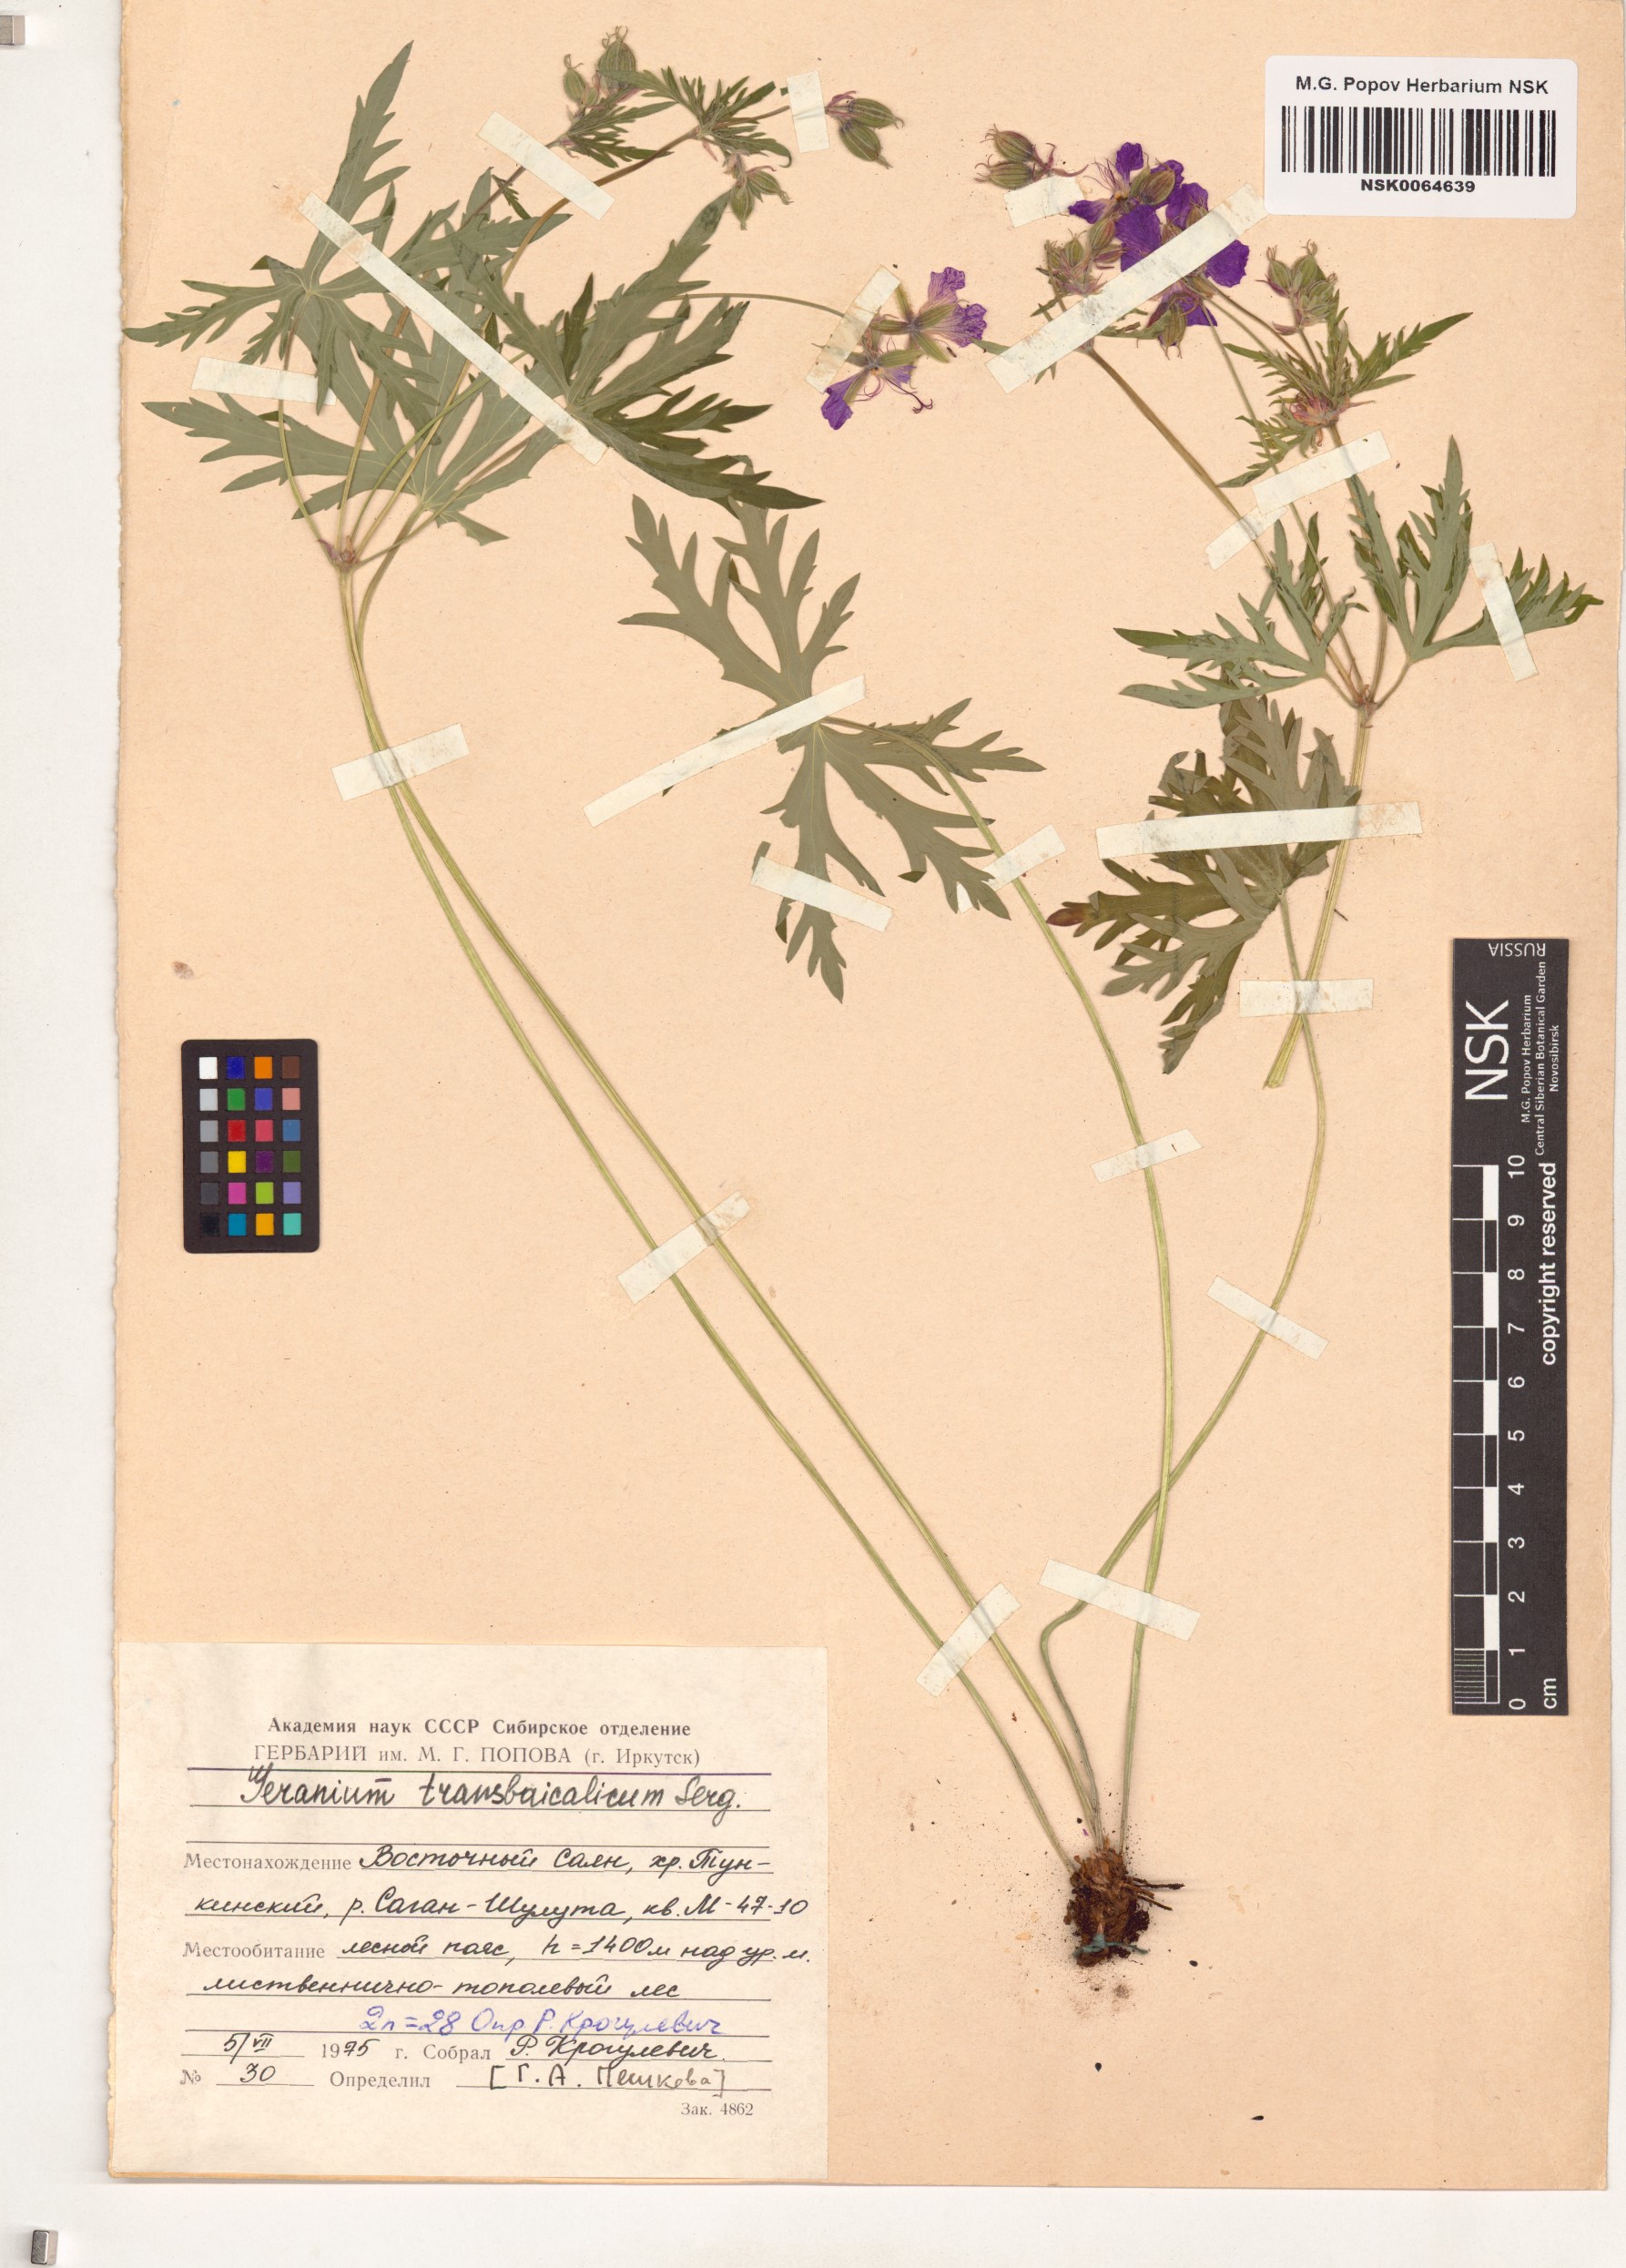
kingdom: Plantae
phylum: Tracheophyta
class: Magnoliopsida
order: Geraniales
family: Geraniaceae
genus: Geranium
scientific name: Geranium pratense
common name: Meadow crane's-bill
